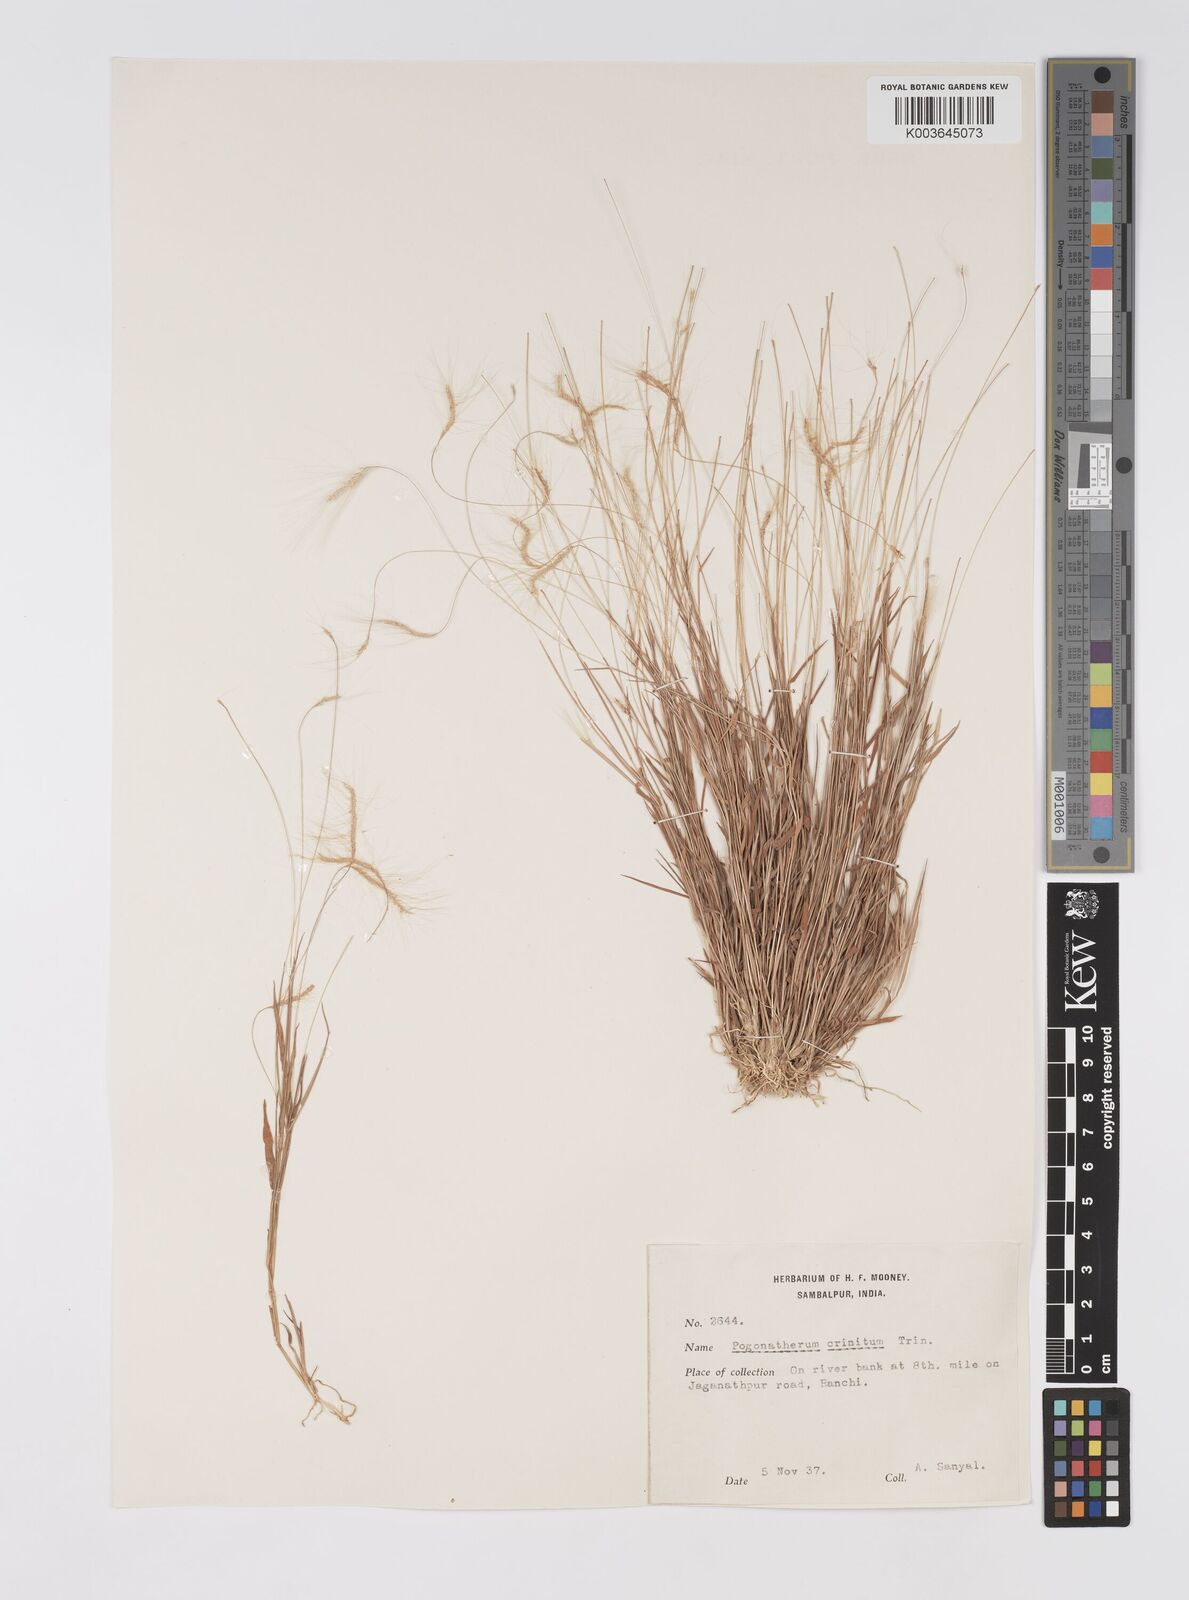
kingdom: Plantae
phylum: Tracheophyta
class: Liliopsida
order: Poales
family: Poaceae
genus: Pogonatherum
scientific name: Pogonatherum crinitum
